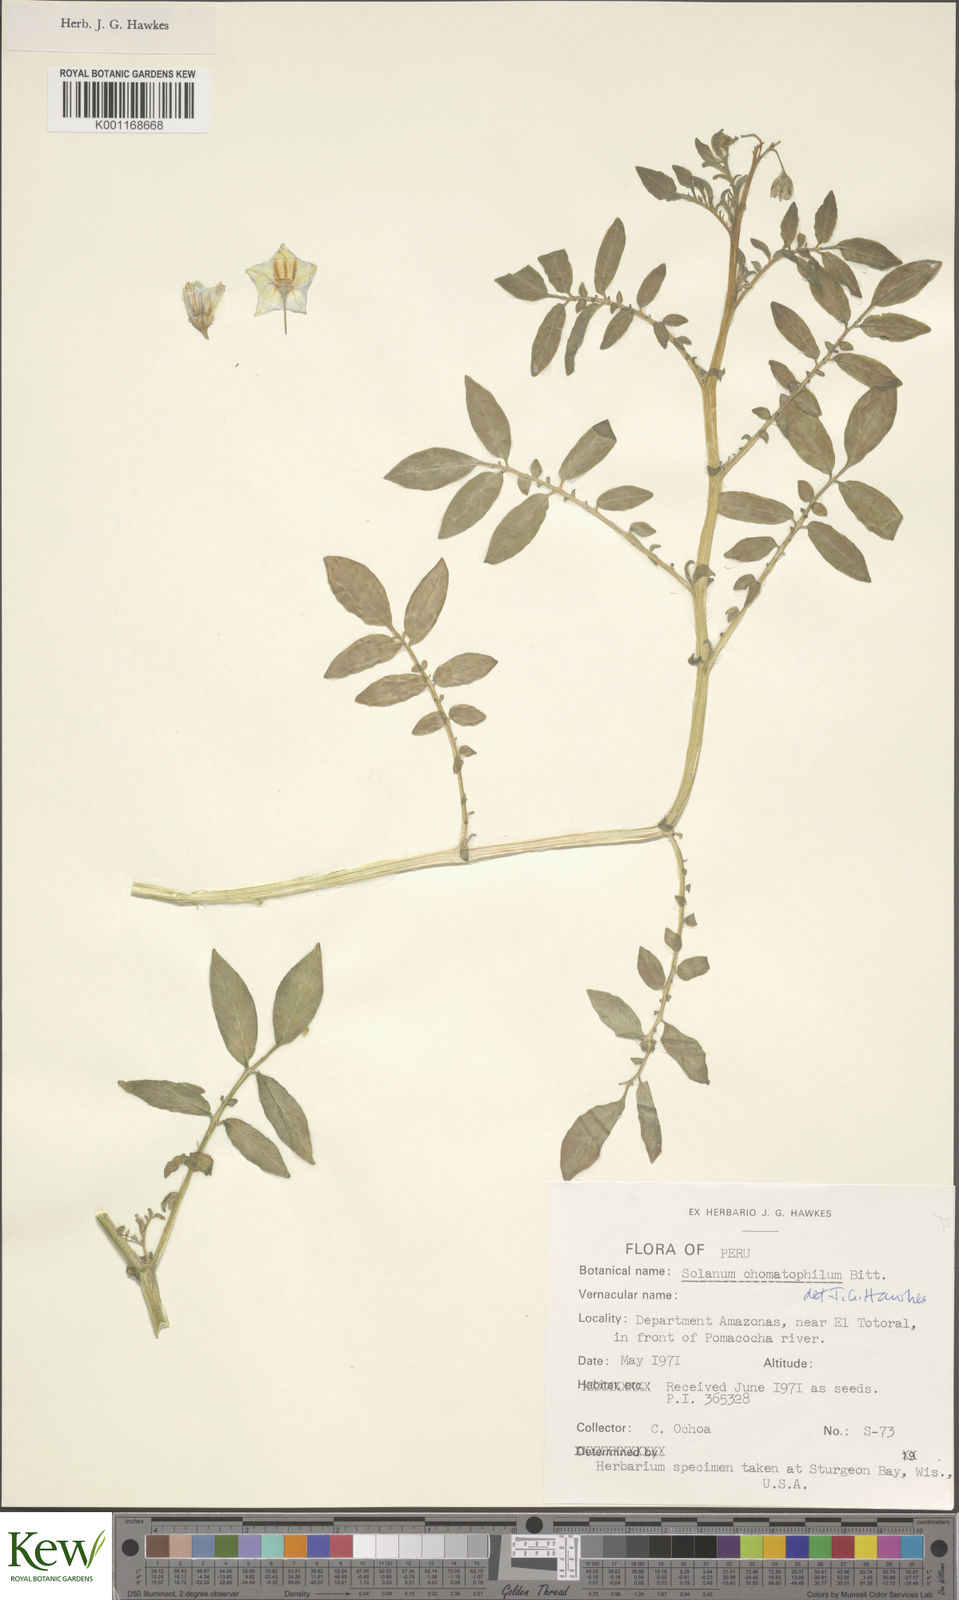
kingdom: Plantae
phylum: Tracheophyta
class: Magnoliopsida
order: Solanales
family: Solanaceae
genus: Solanum
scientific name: Solanum chomatophilum
